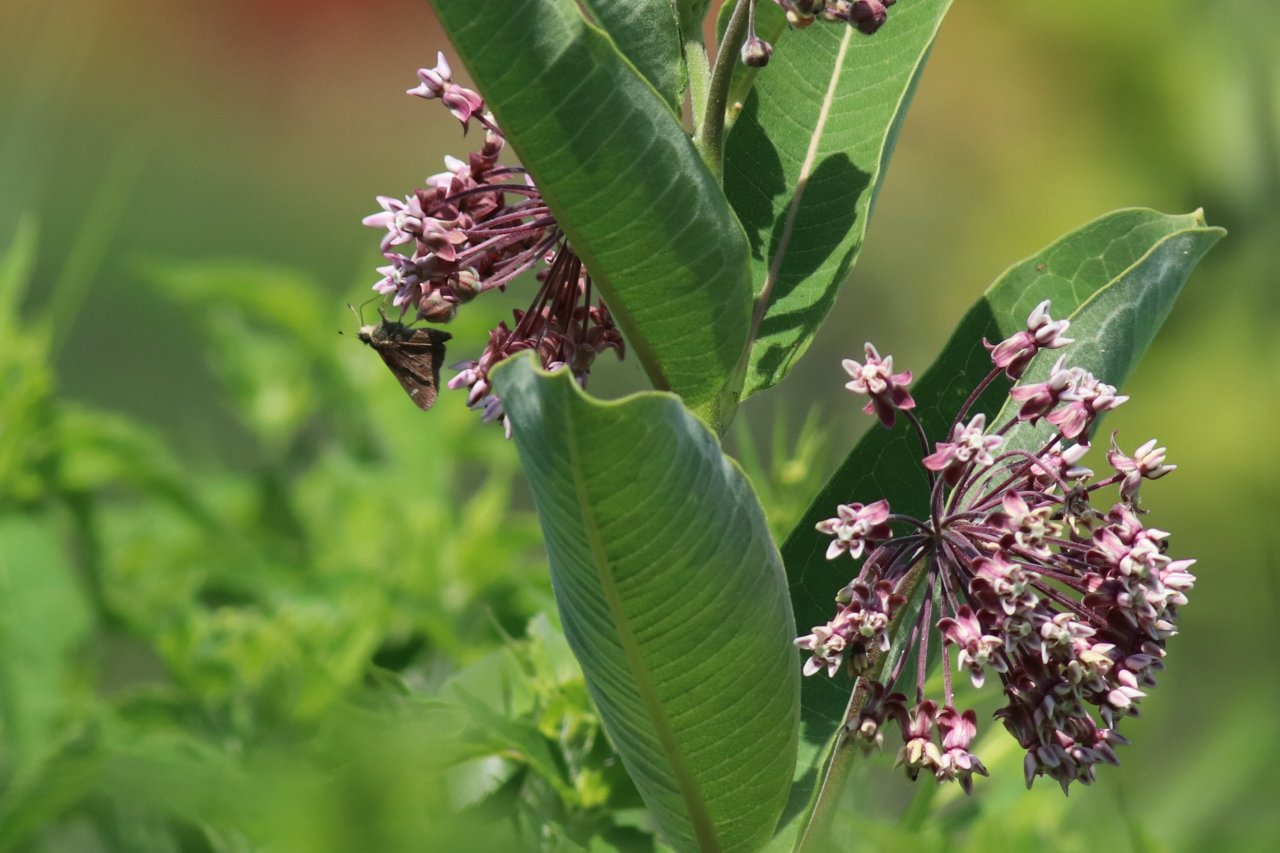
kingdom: Animalia
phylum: Arthropoda
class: Insecta
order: Lepidoptera
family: Hesperiidae
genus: Vernia
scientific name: Vernia verna
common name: Little Glassywing
